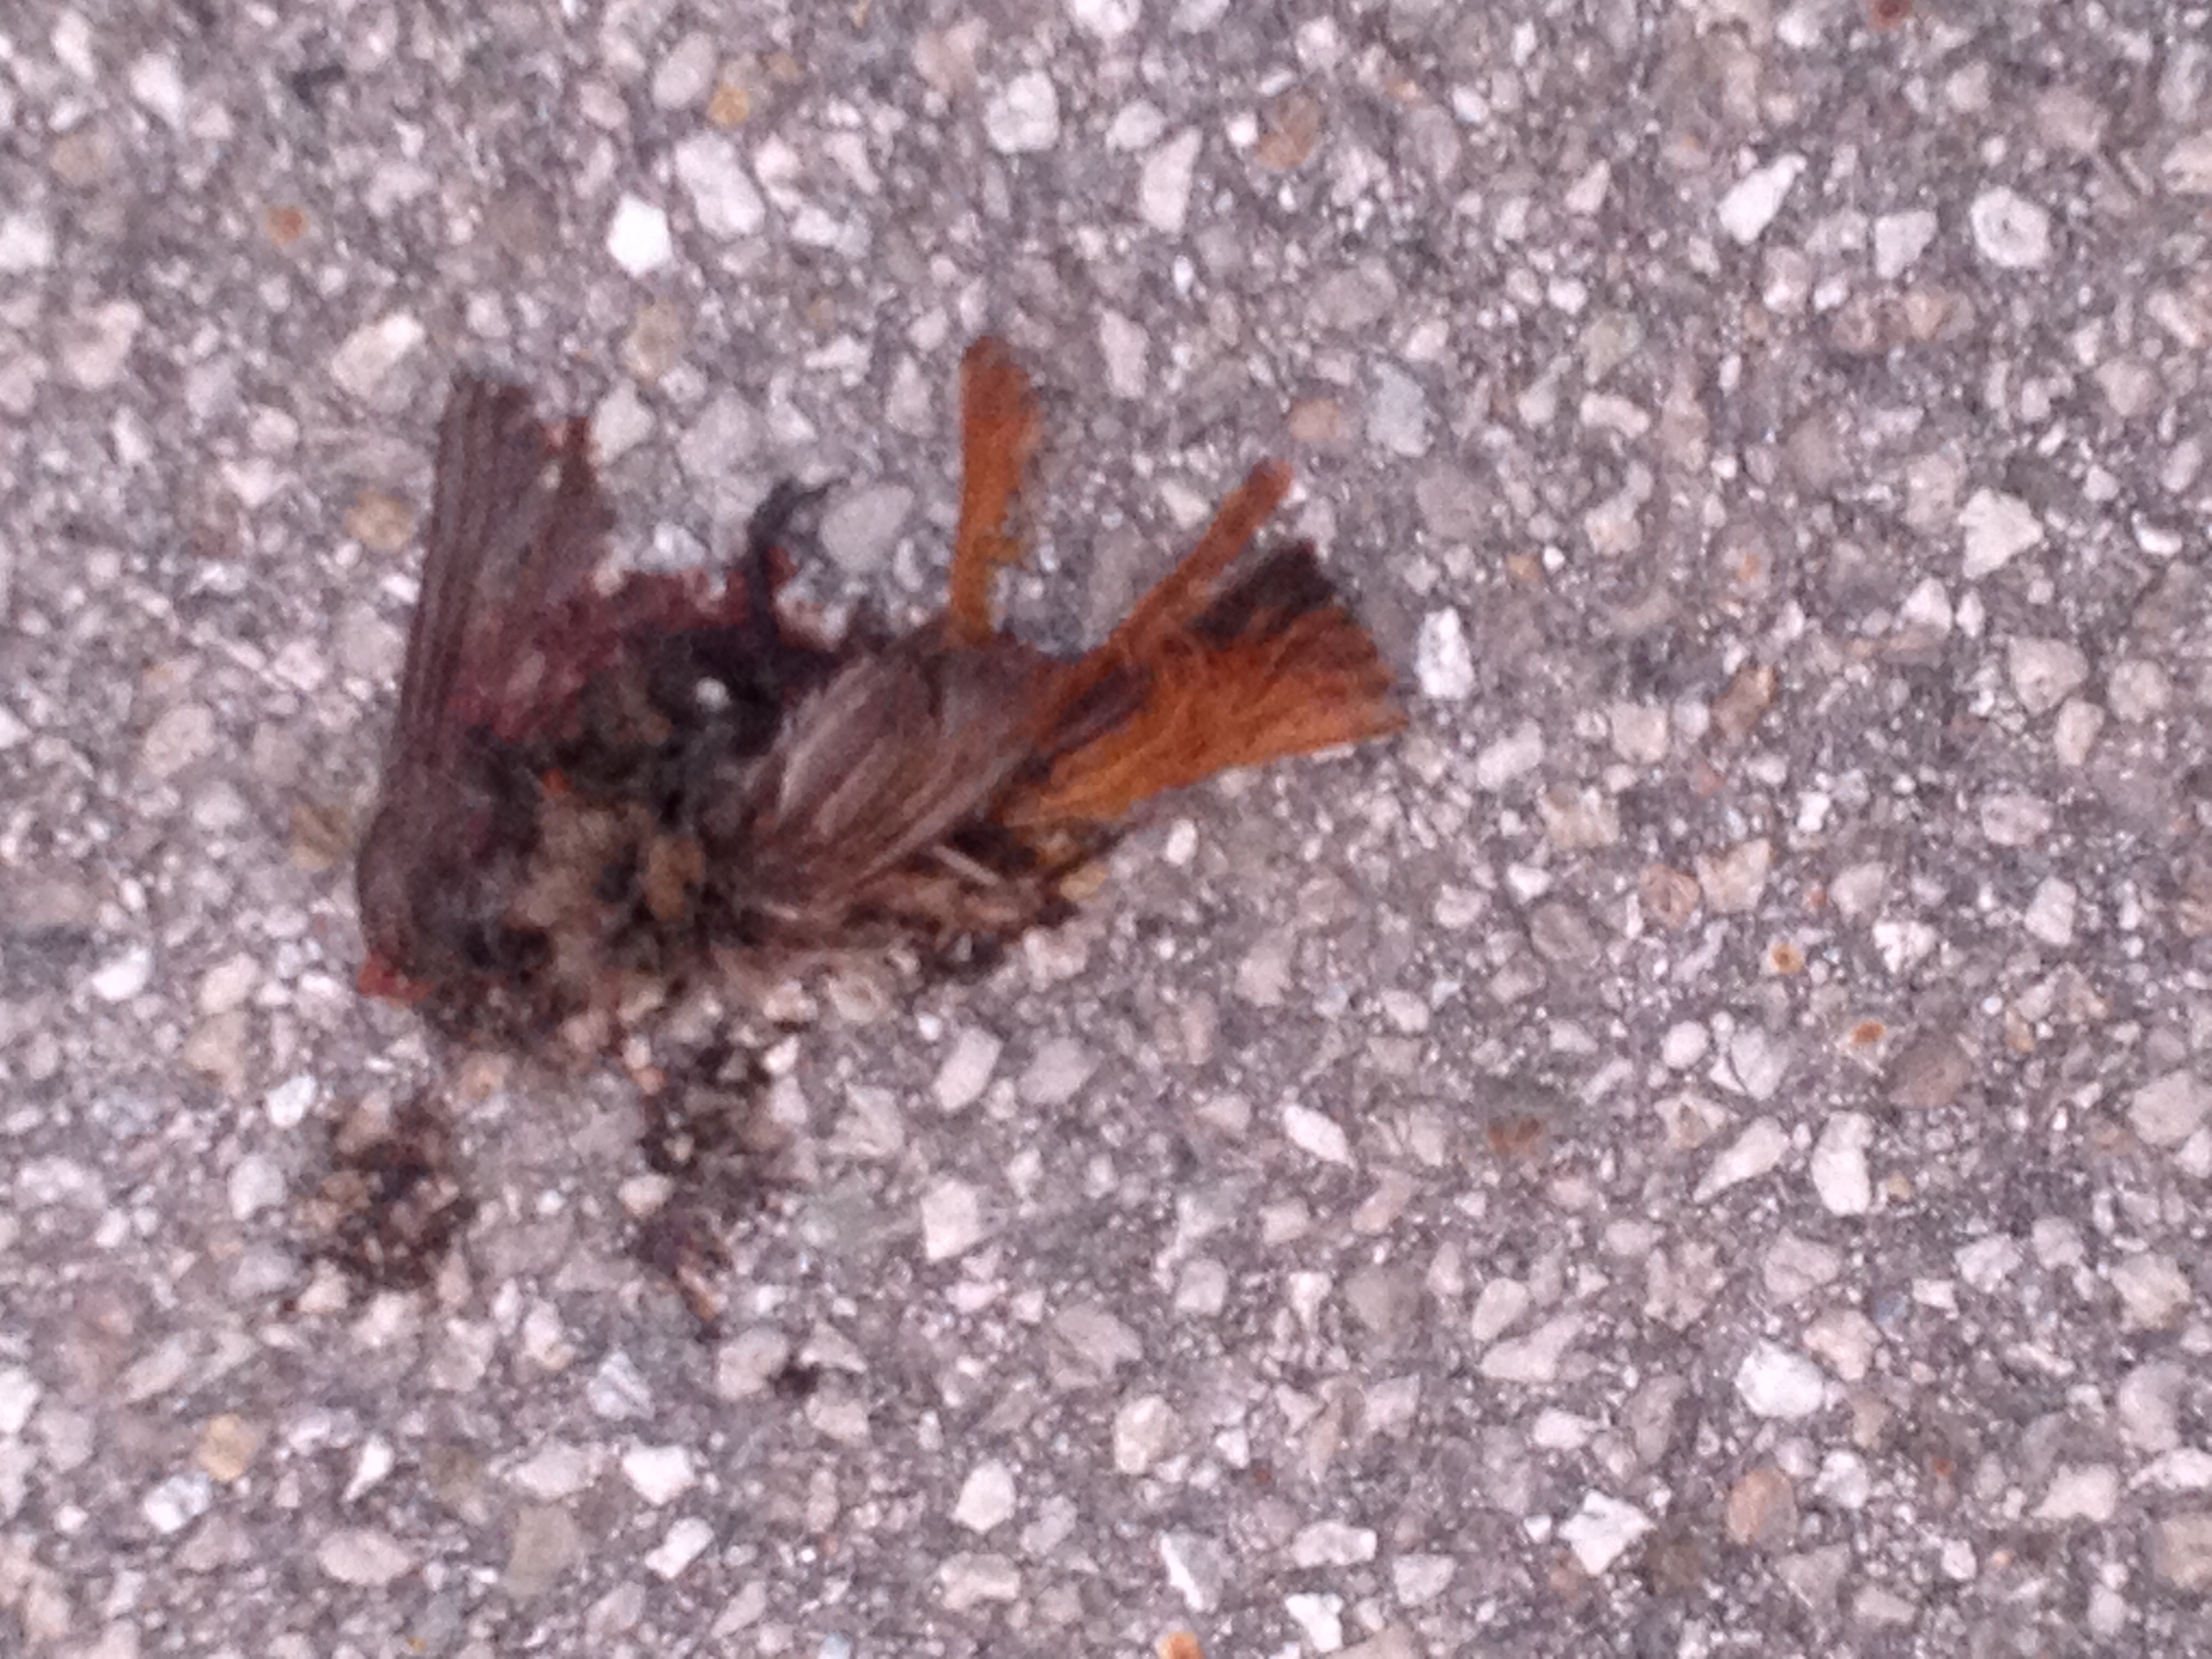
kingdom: Animalia
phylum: Chordata
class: Aves
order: Passeriformes
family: Muscicapidae
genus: Phoenicurus
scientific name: Phoenicurus
